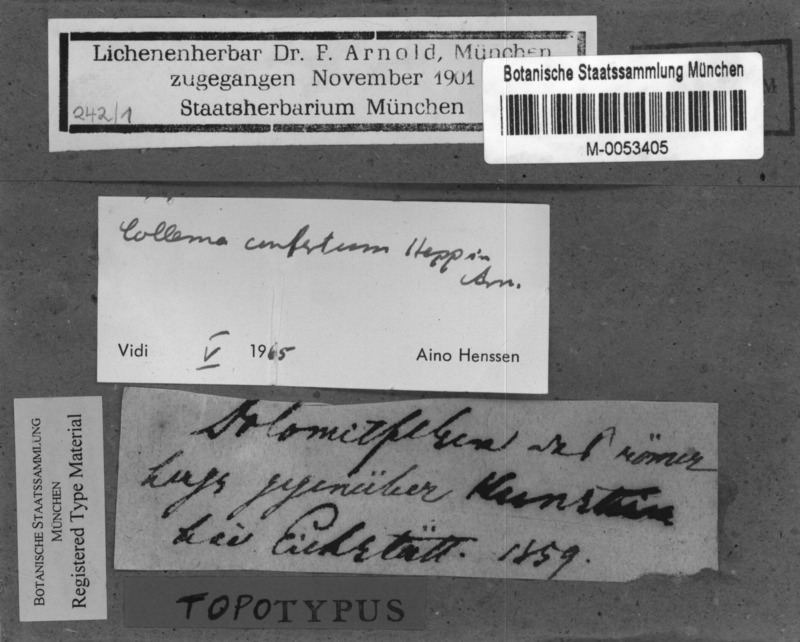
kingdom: Fungi
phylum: Ascomycota
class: Lecanoromycetes
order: Peltigerales
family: Collemataceae
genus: Enchylium
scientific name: Enchylium confertum
